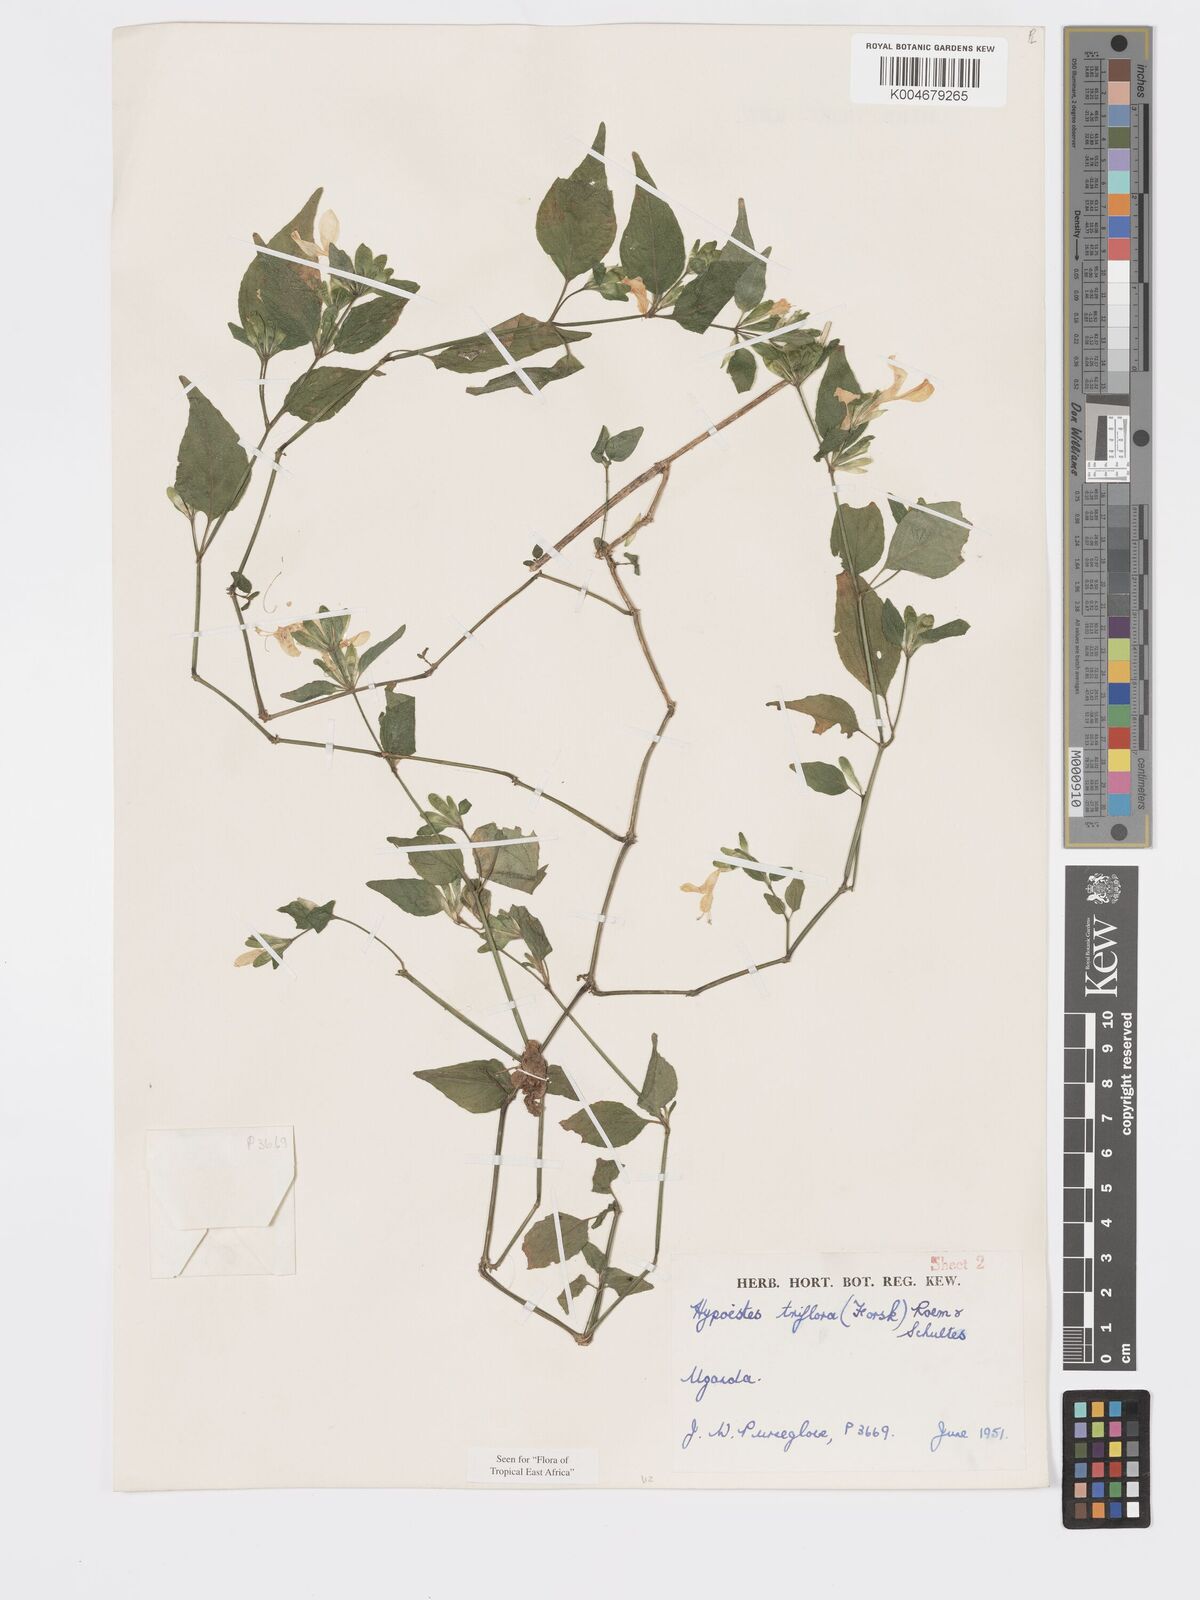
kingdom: Plantae
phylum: Tracheophyta
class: Magnoliopsida
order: Lamiales
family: Acanthaceae
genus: Hypoestes
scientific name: Hypoestes triflora
